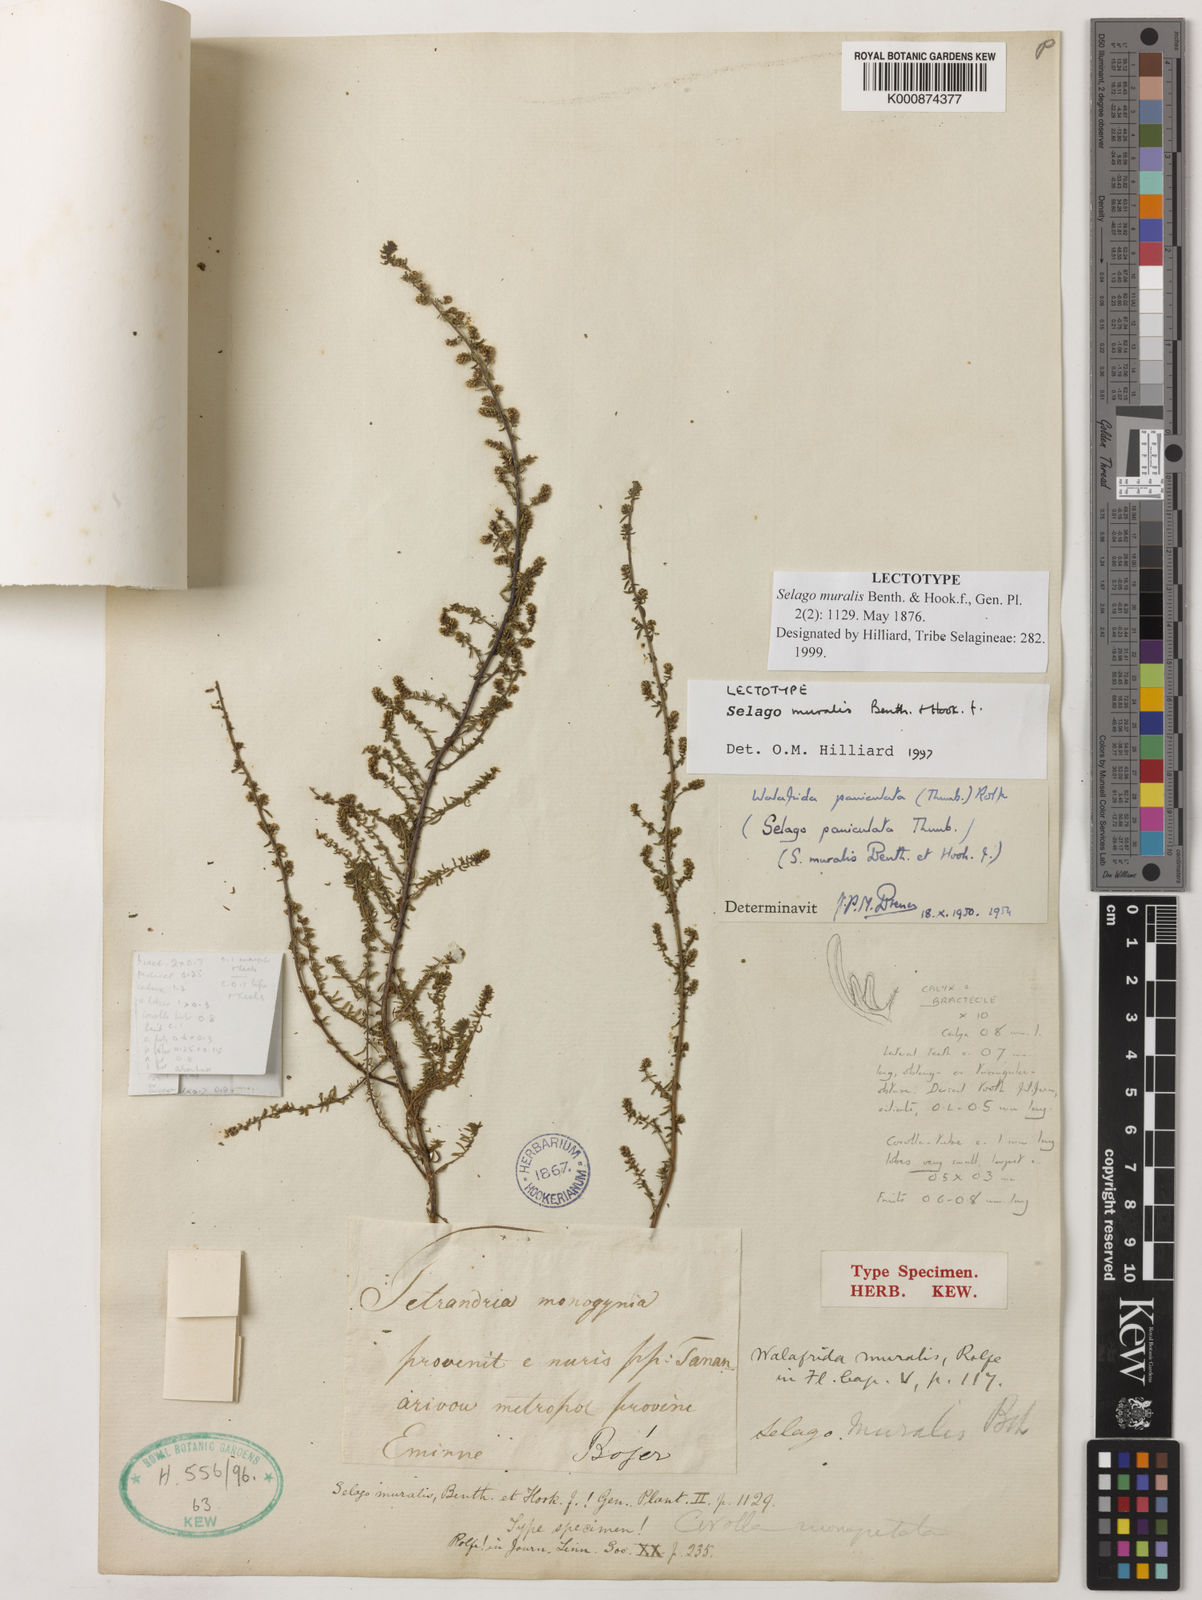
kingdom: Plantae
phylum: Tracheophyta
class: Magnoliopsida
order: Lamiales
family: Scrophulariaceae
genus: Selago
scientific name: Selago muralis
